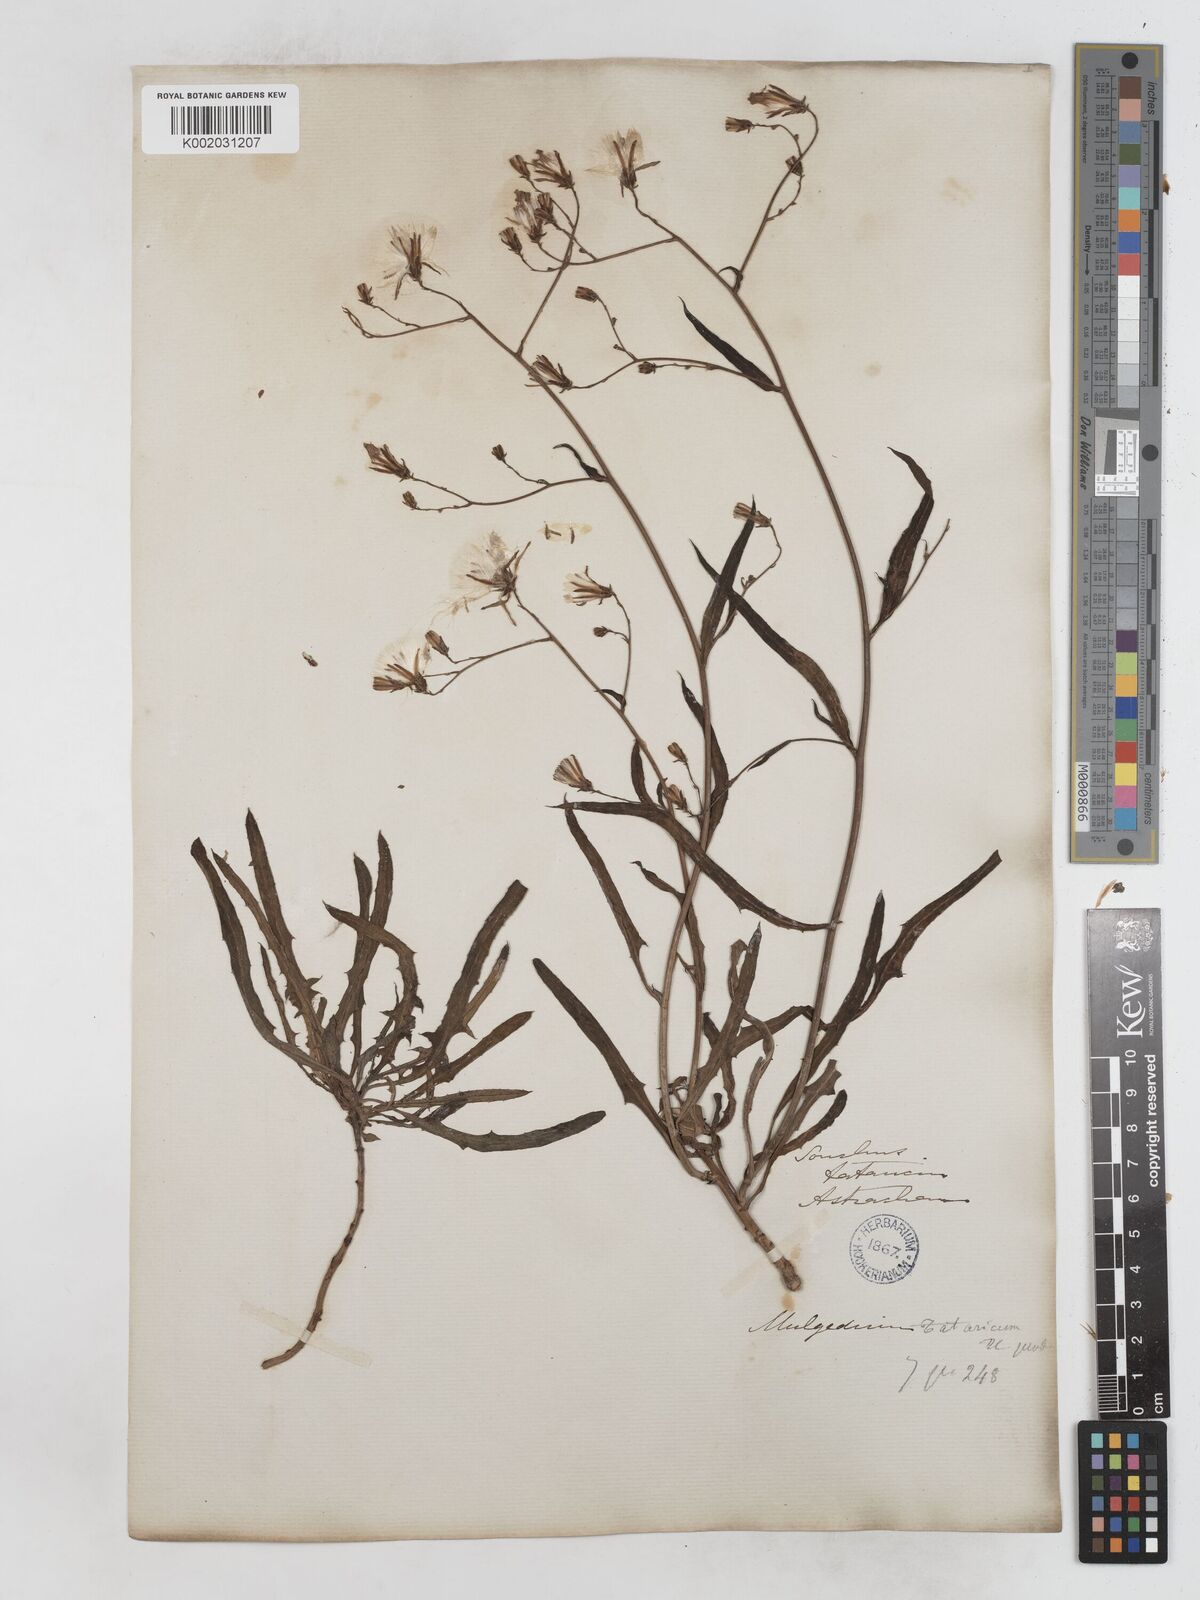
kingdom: Plantae
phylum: Tracheophyta
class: Magnoliopsida
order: Asterales
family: Asteraceae
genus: Lactuca
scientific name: Lactuca tatarica
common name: Blue lettuce
